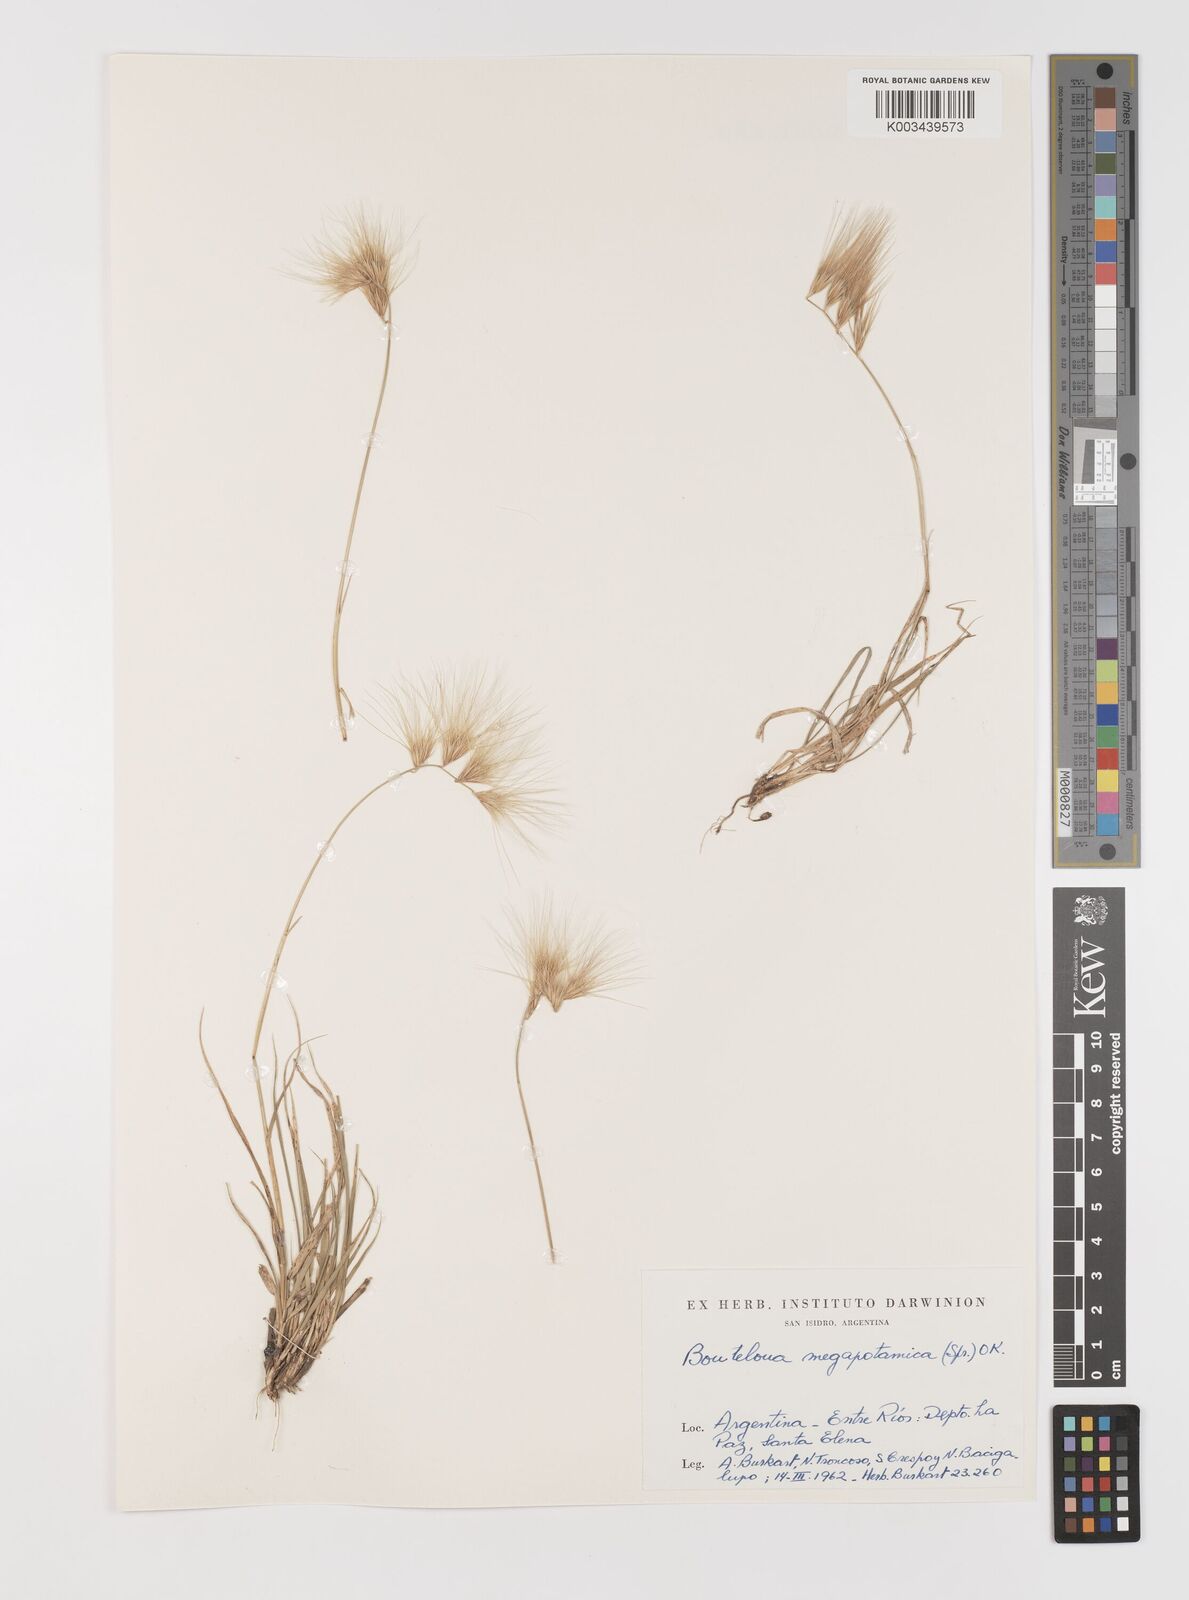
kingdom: Plantae
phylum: Tracheophyta
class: Liliopsida
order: Poales
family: Poaceae
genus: Bouteloua
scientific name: Bouteloua megapotamica
